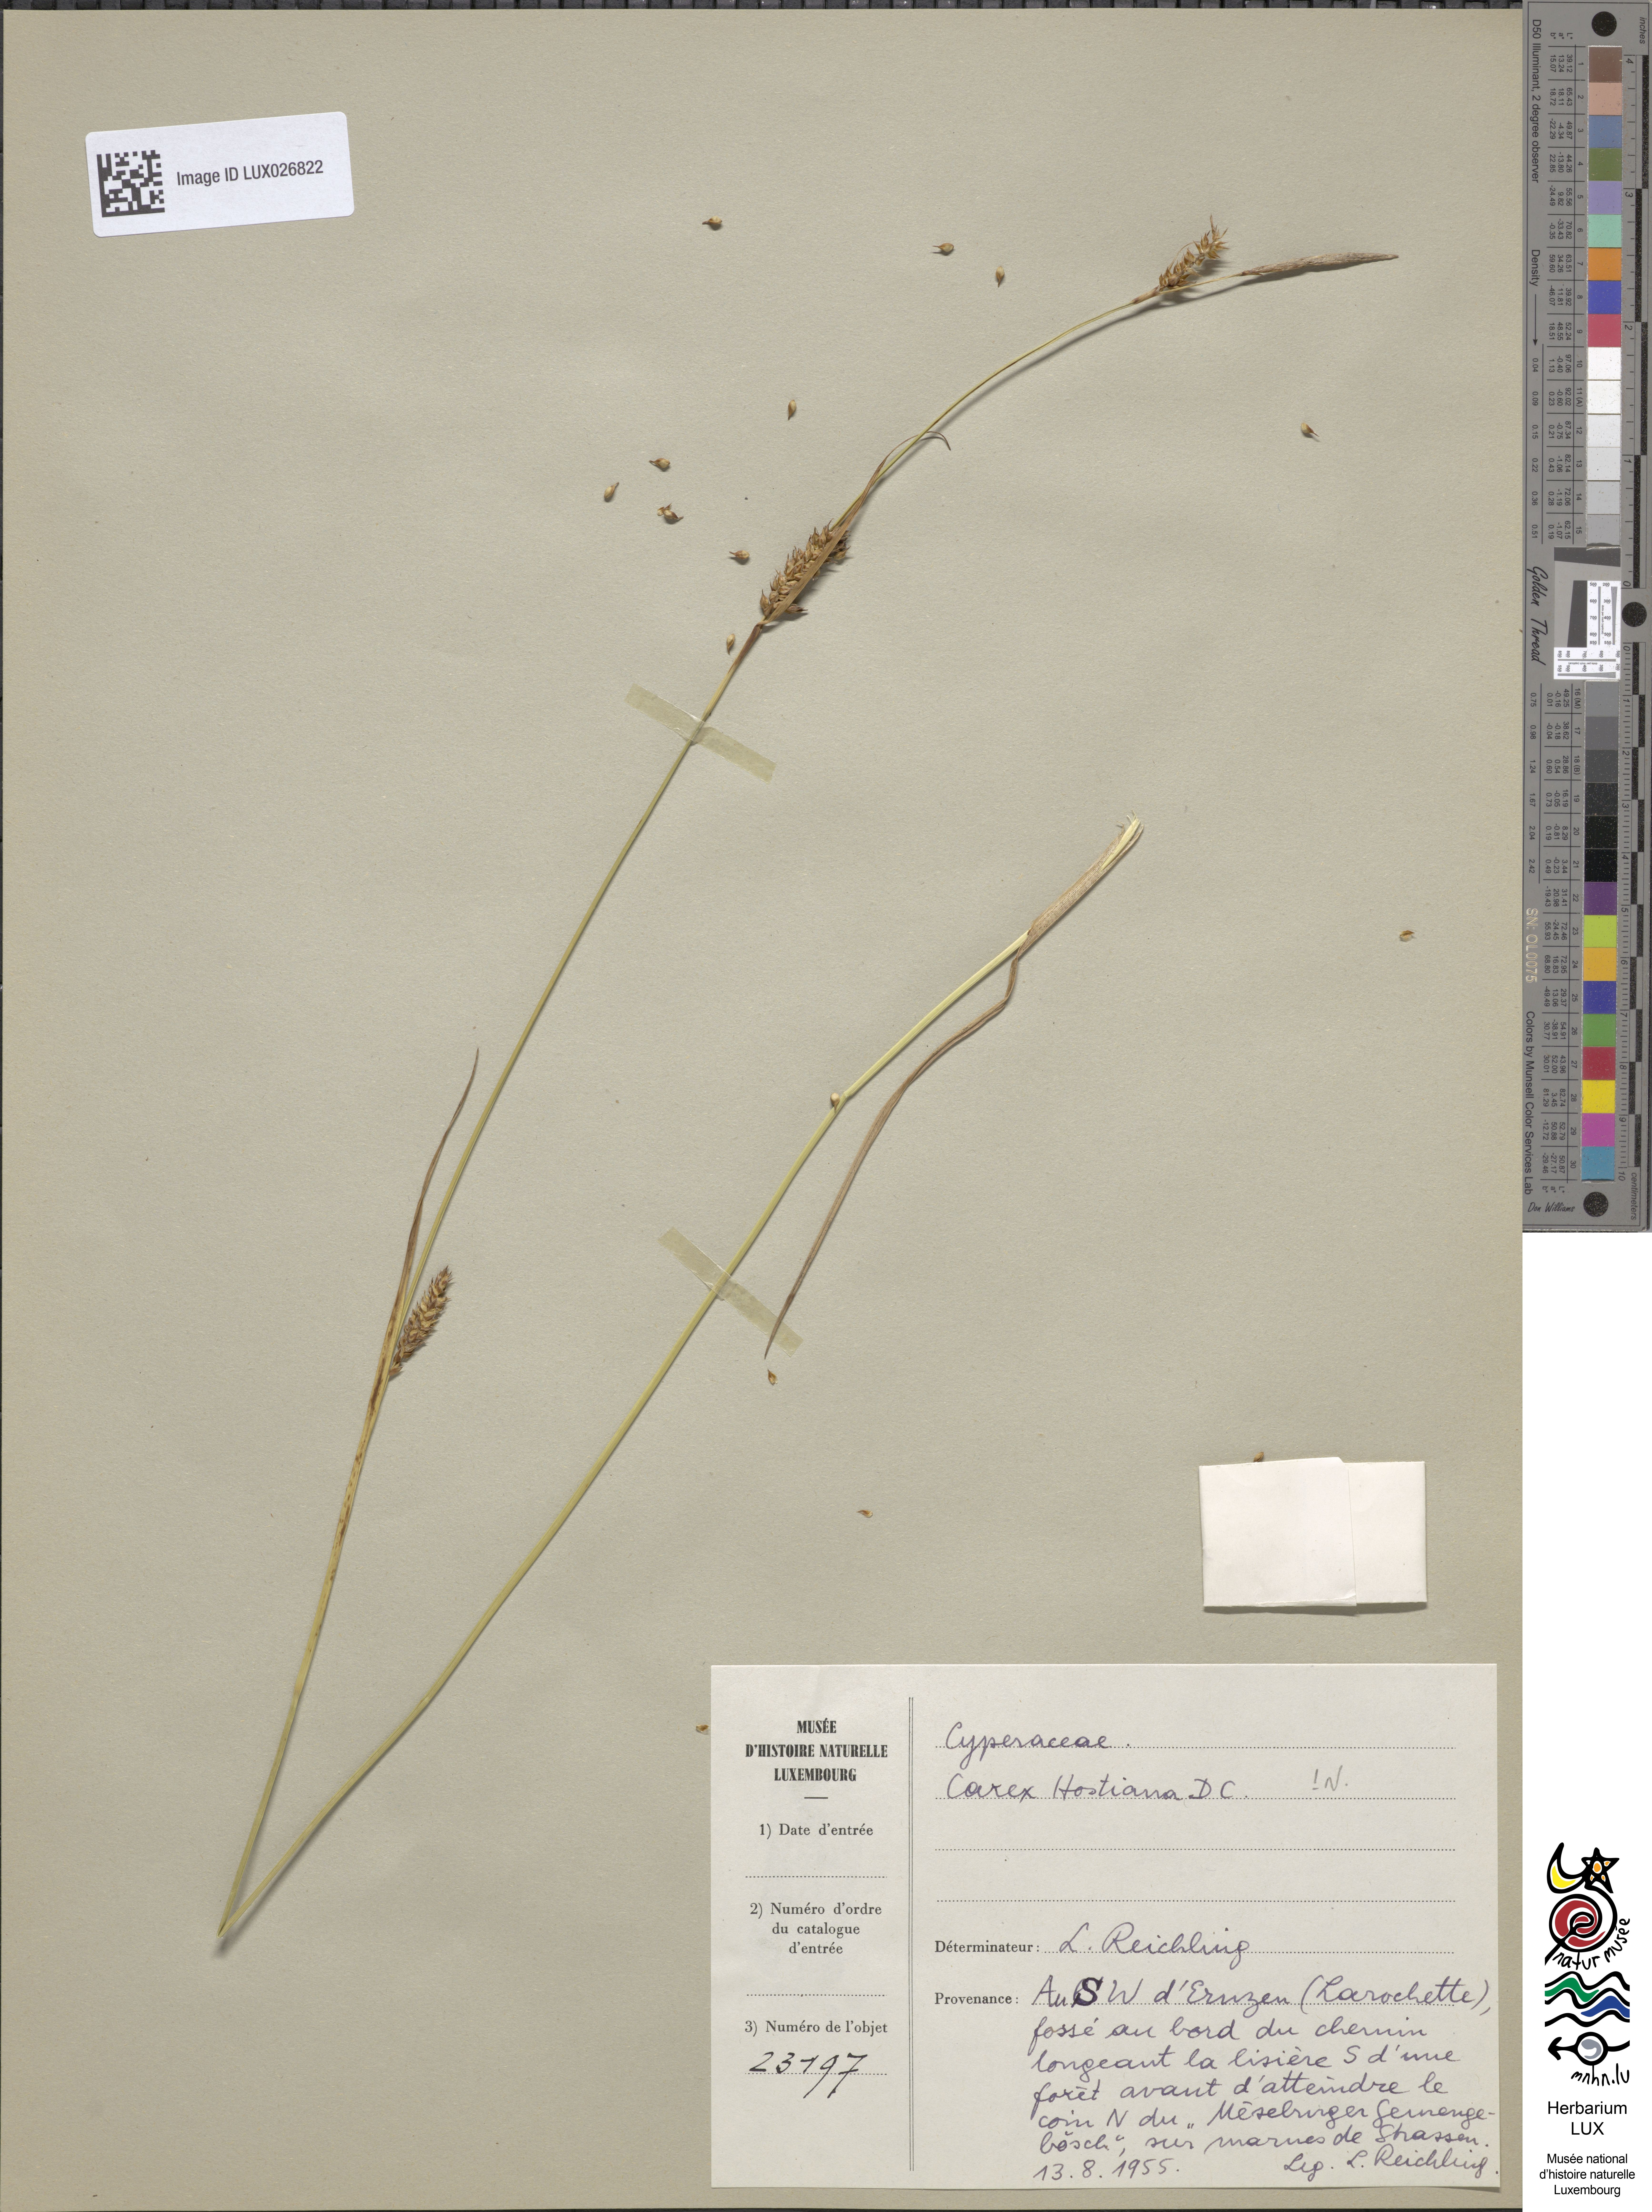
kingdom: Plantae
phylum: Tracheophyta
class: Liliopsida
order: Poales
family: Cyperaceae
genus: Carex
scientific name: Carex hostiana
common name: Tawny sedge
